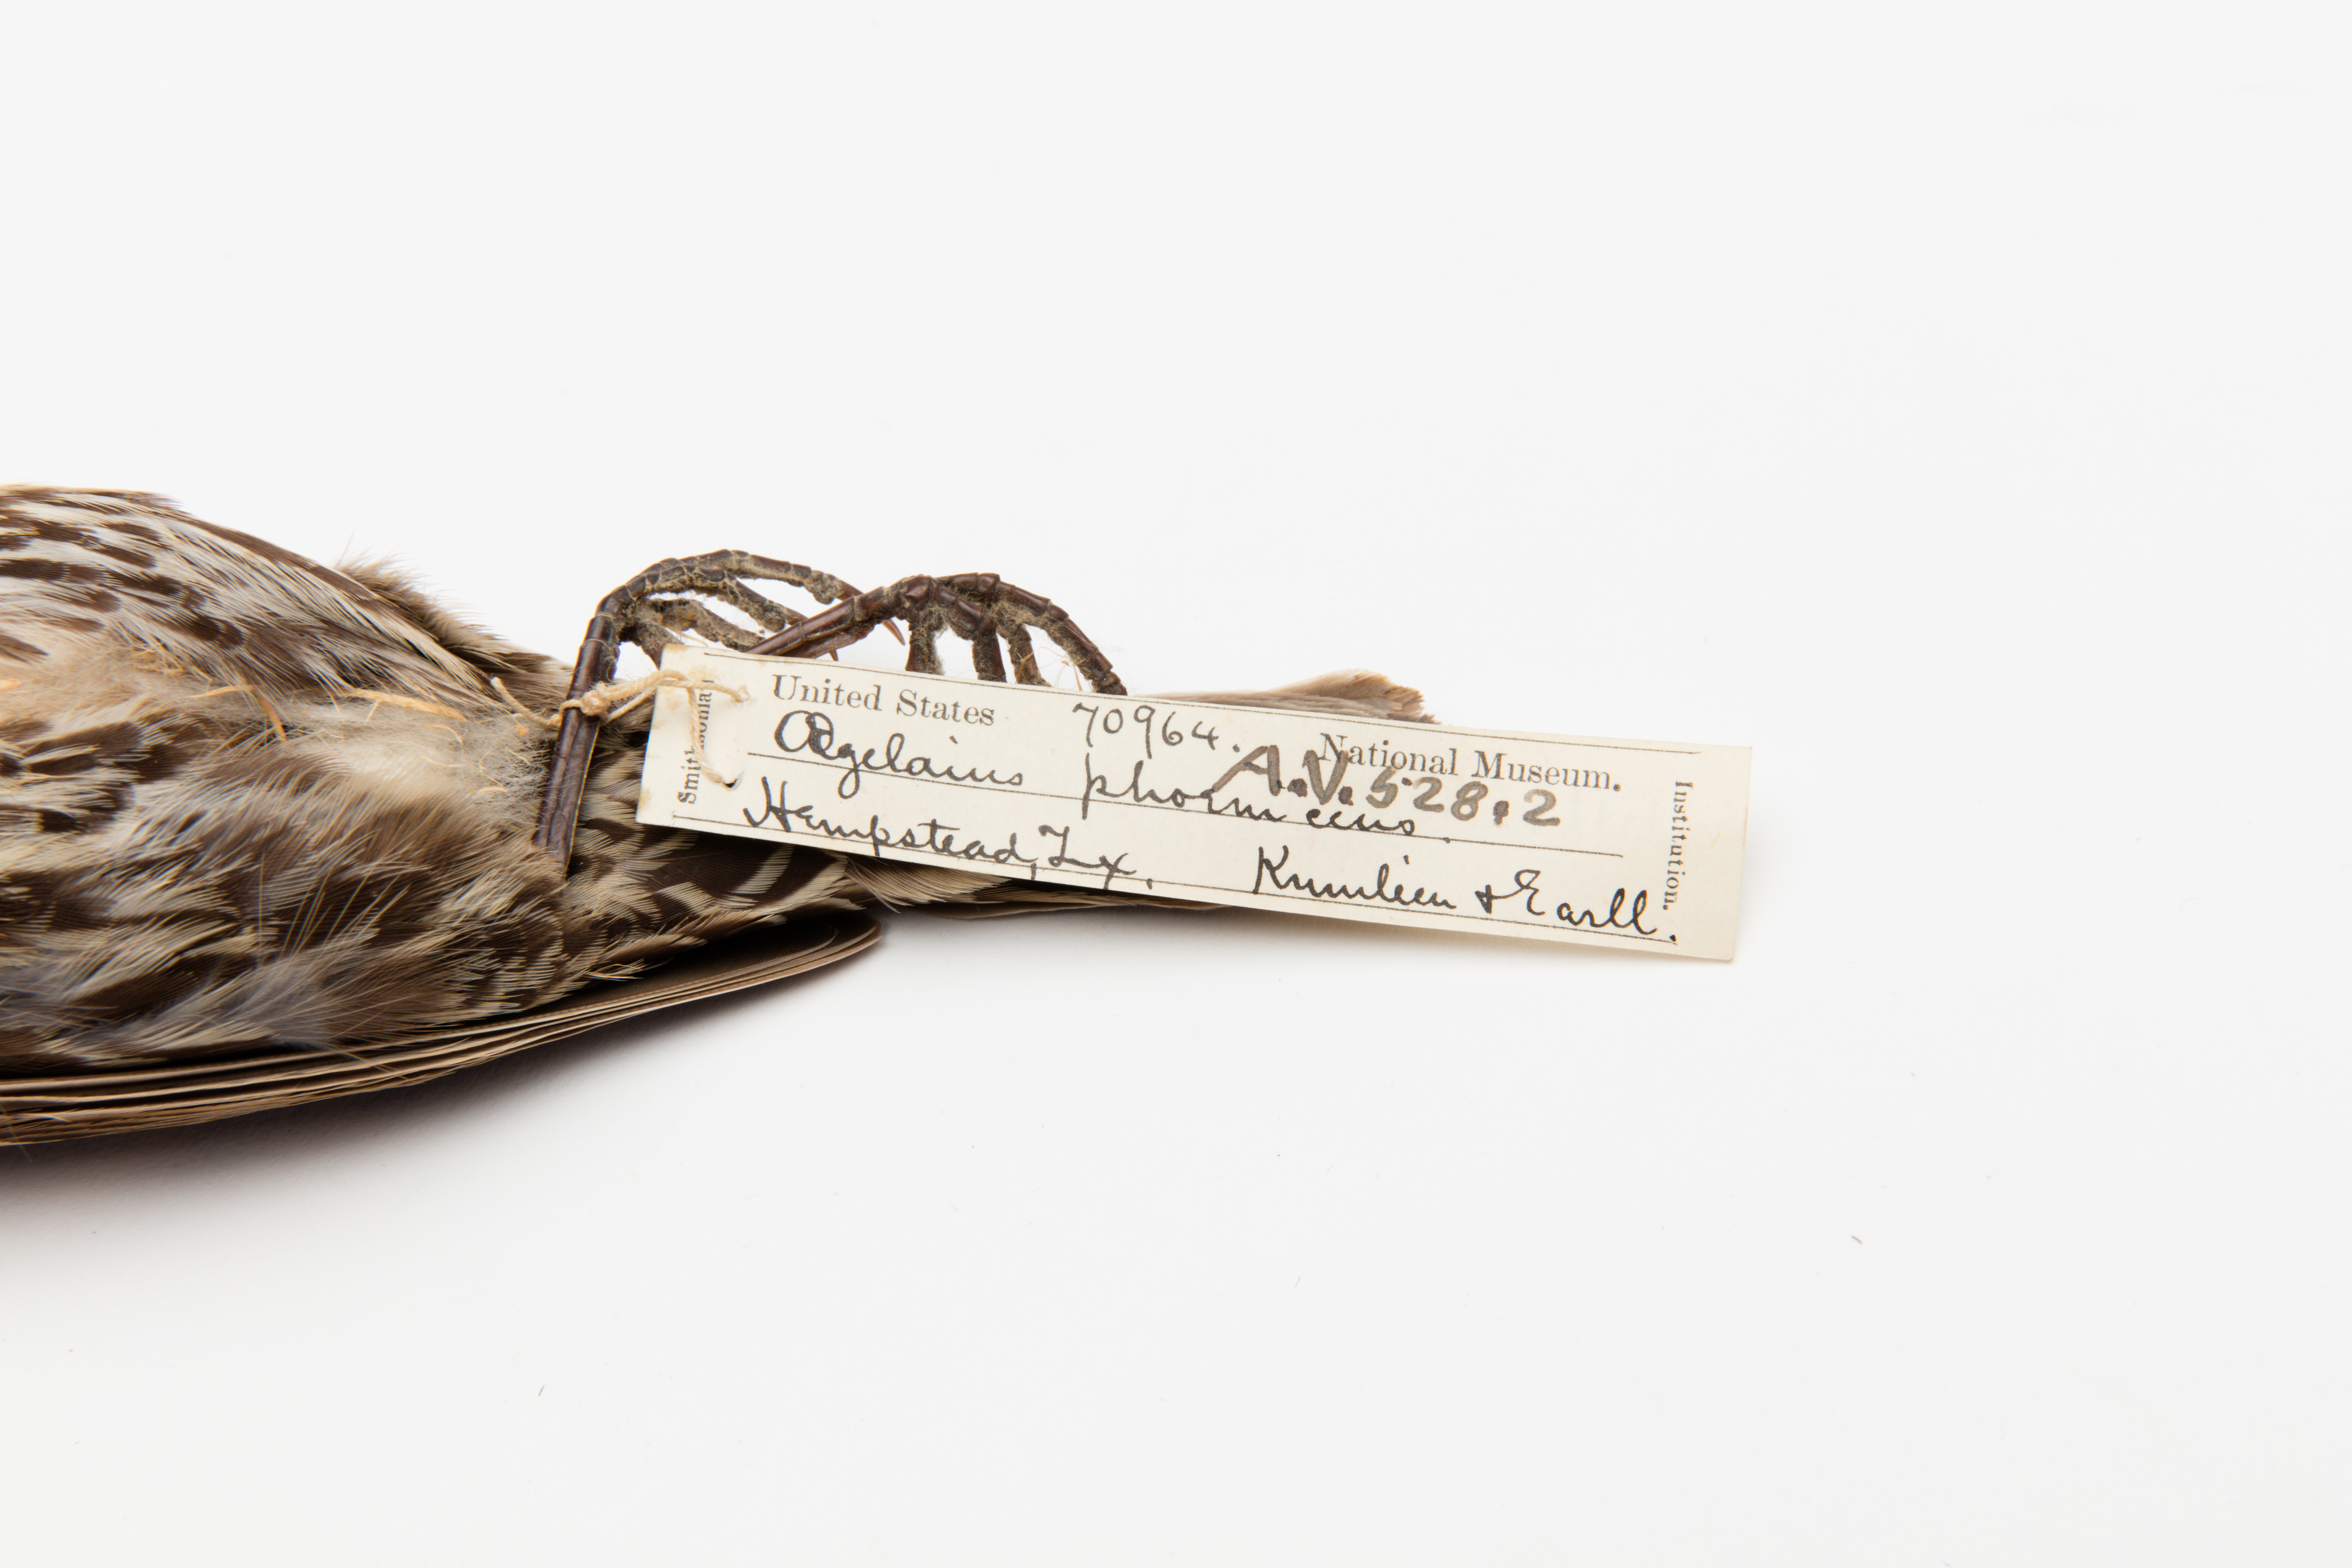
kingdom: Animalia
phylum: Chordata
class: Aves
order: Passeriformes
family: Icteridae
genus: Agelaius
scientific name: Agelaius phoeniceus
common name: Red-winged blackbird
